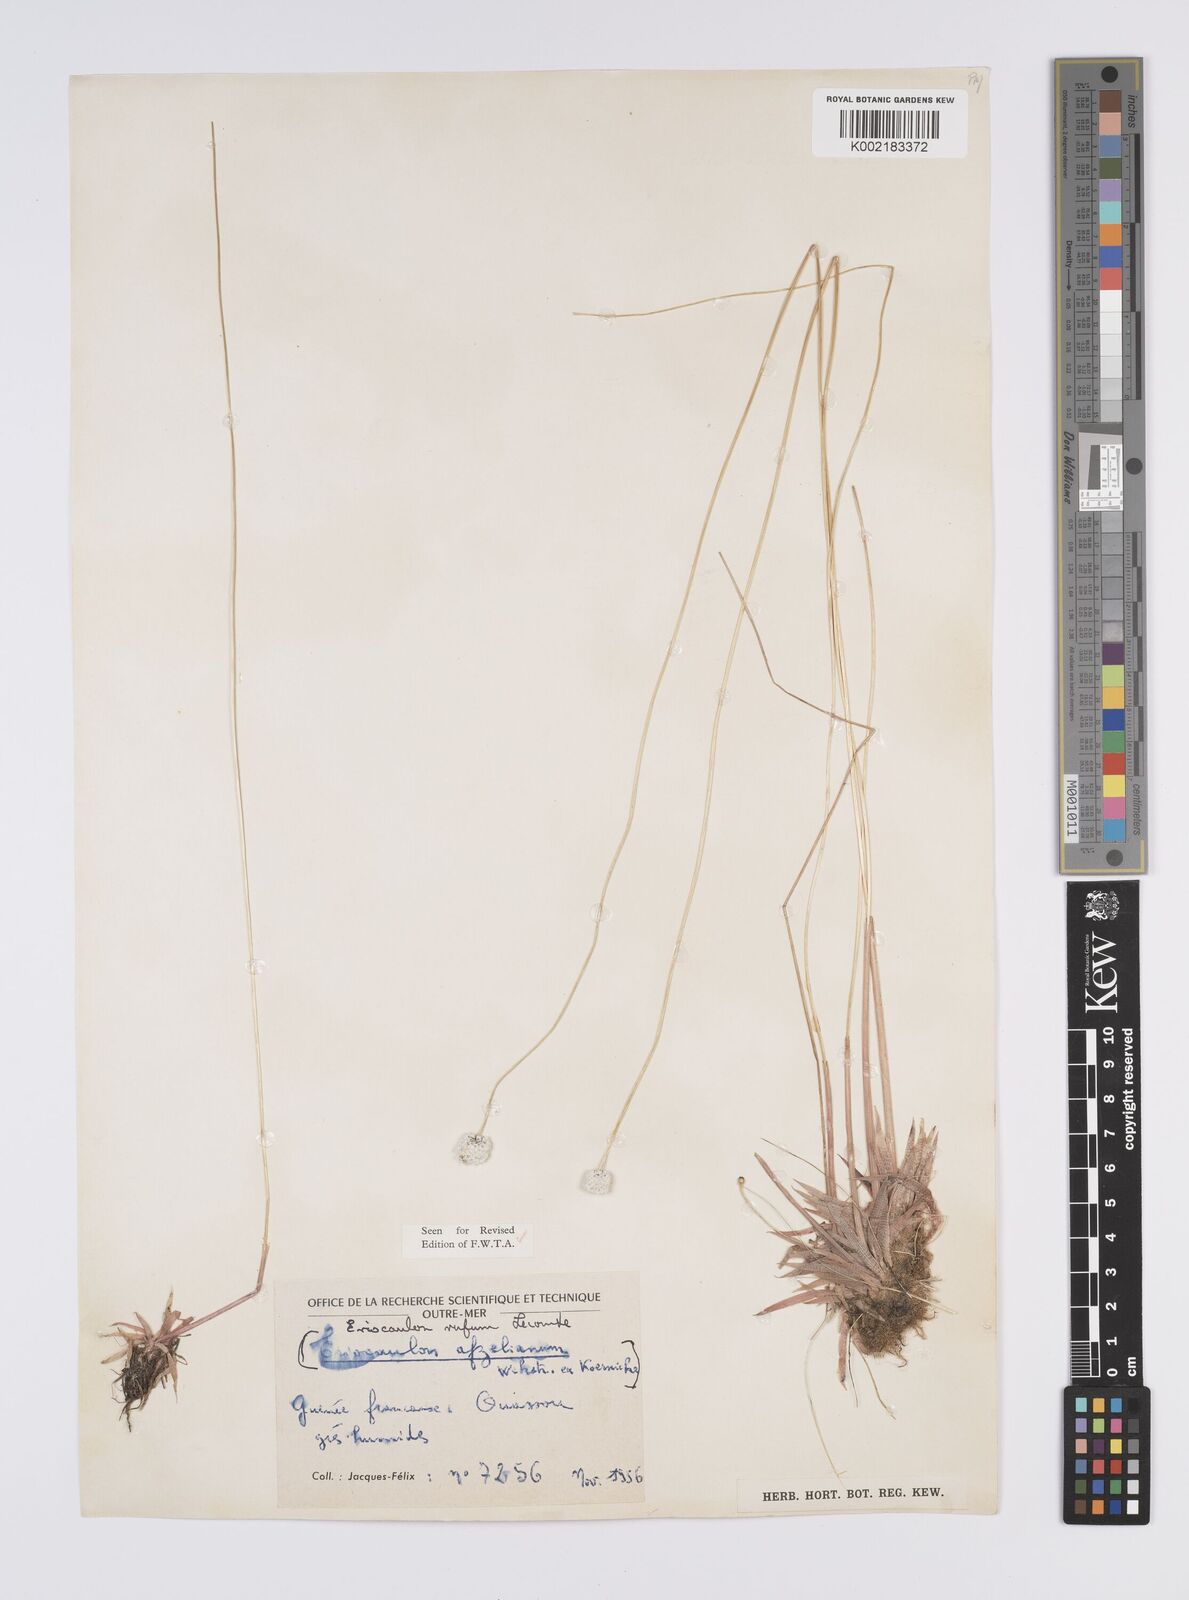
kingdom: Plantae
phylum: Tracheophyta
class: Liliopsida
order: Poales
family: Eriocaulaceae
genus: Eriocaulon
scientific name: Eriocaulon rufum
